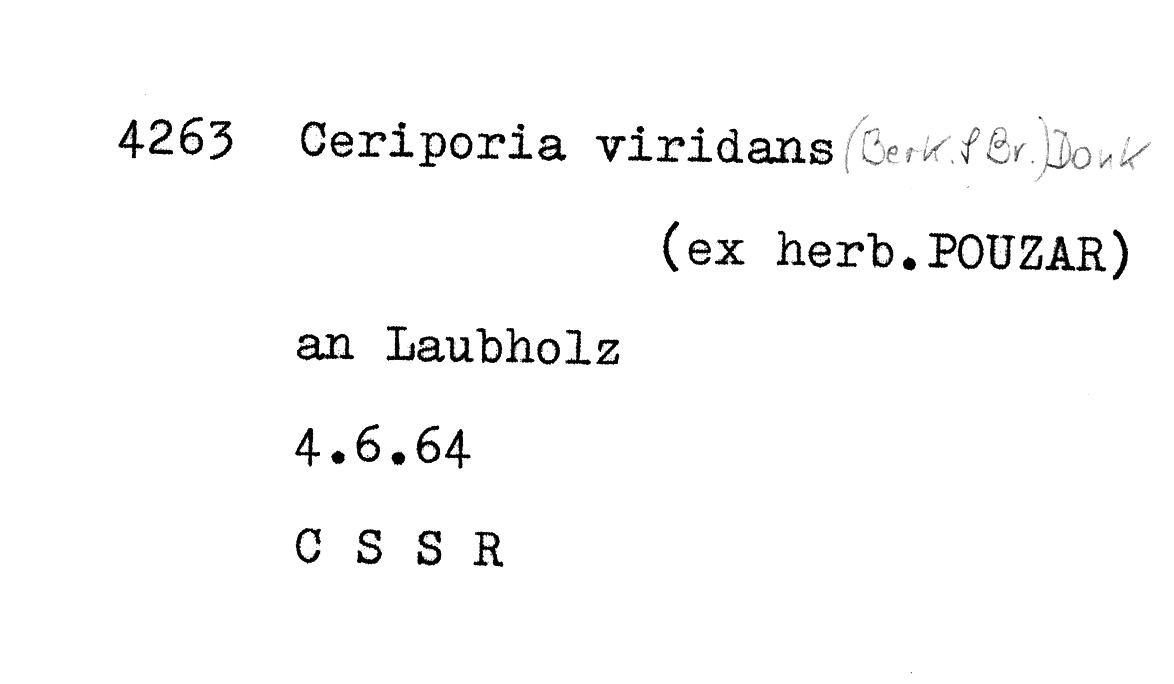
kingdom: Fungi
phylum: Basidiomycota
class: Agaricomycetes
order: Polyporales
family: Irpicaceae
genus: Ceriporia
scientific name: Ceriporia viridans
